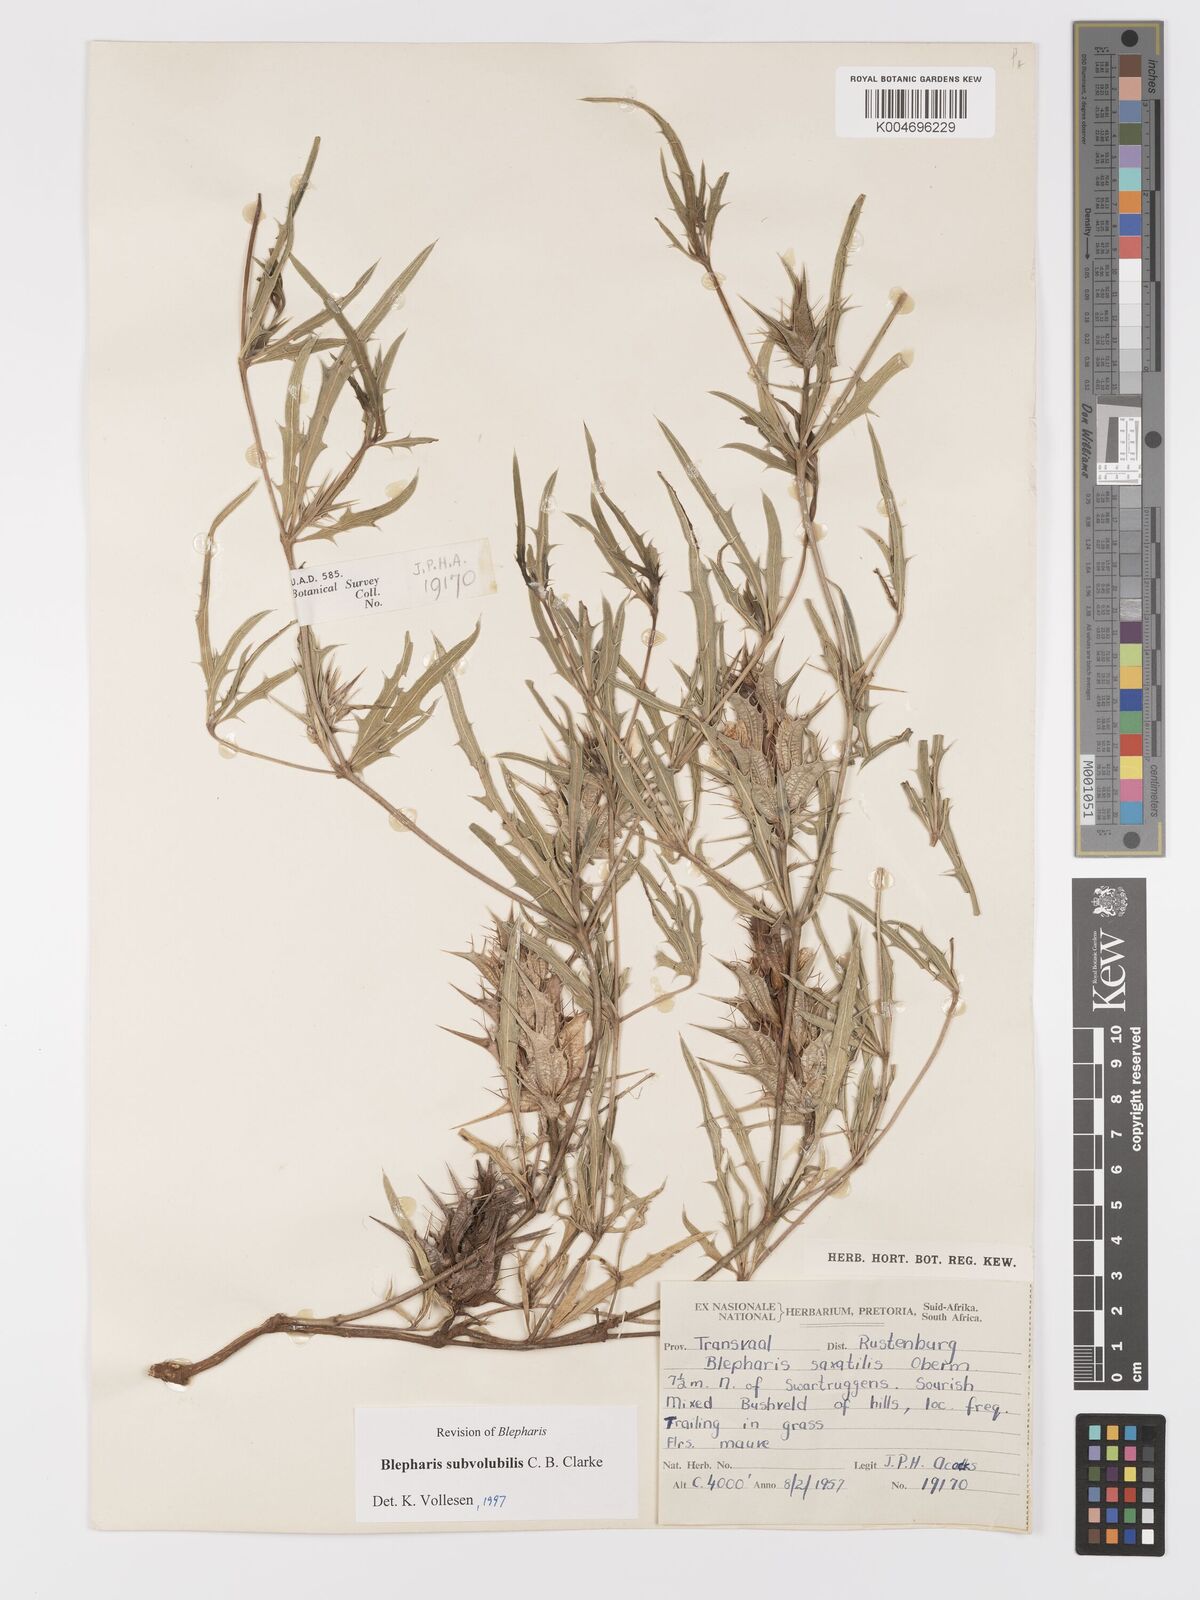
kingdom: Plantae
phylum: Tracheophyta
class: Magnoliopsida
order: Lamiales
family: Acanthaceae
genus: Blepharis
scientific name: Blepharis subvolubilis
